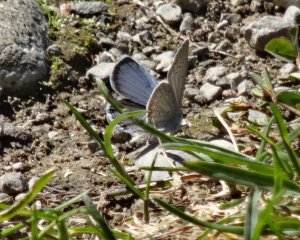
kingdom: Animalia
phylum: Arthropoda
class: Insecta
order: Lepidoptera
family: Lycaenidae
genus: Elkalyce
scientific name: Elkalyce comyntas
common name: Eastern Tailed-Blue
